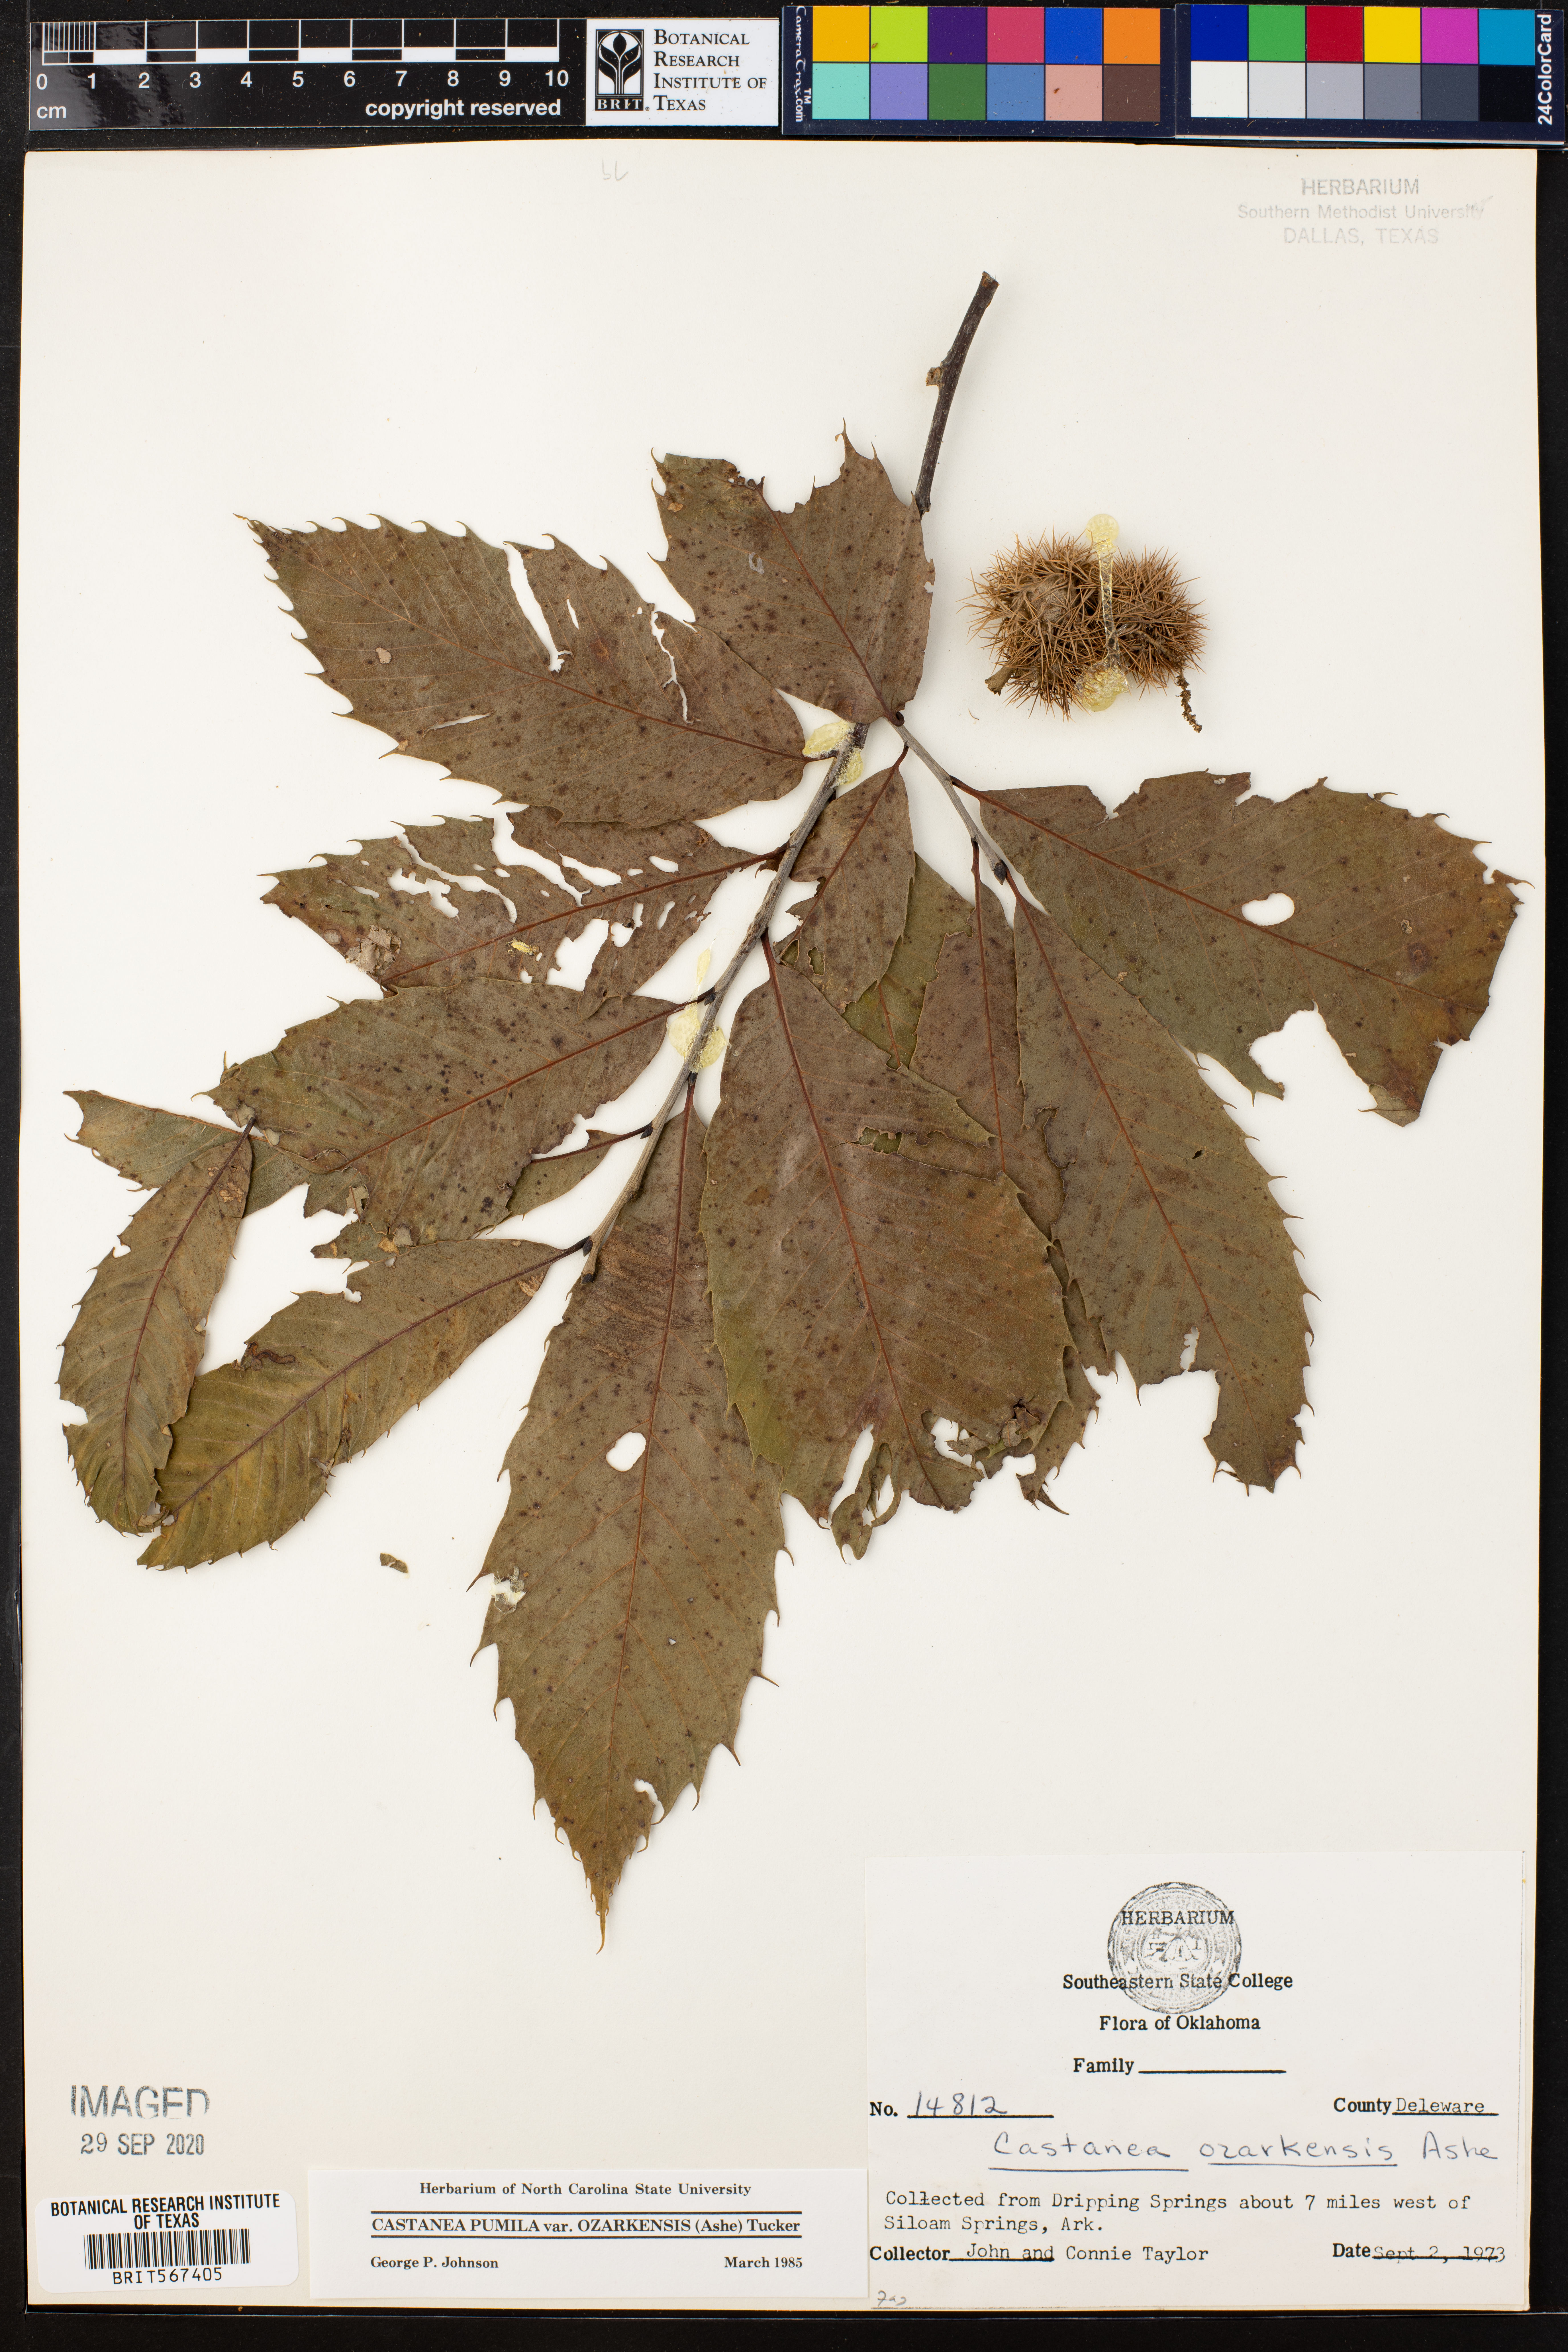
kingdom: Plantae
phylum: Tracheophyta
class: Magnoliopsida
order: Fagales
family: Fagaceae
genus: Castanea
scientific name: Castanea ozarkensis
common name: Ozark chinkapin
